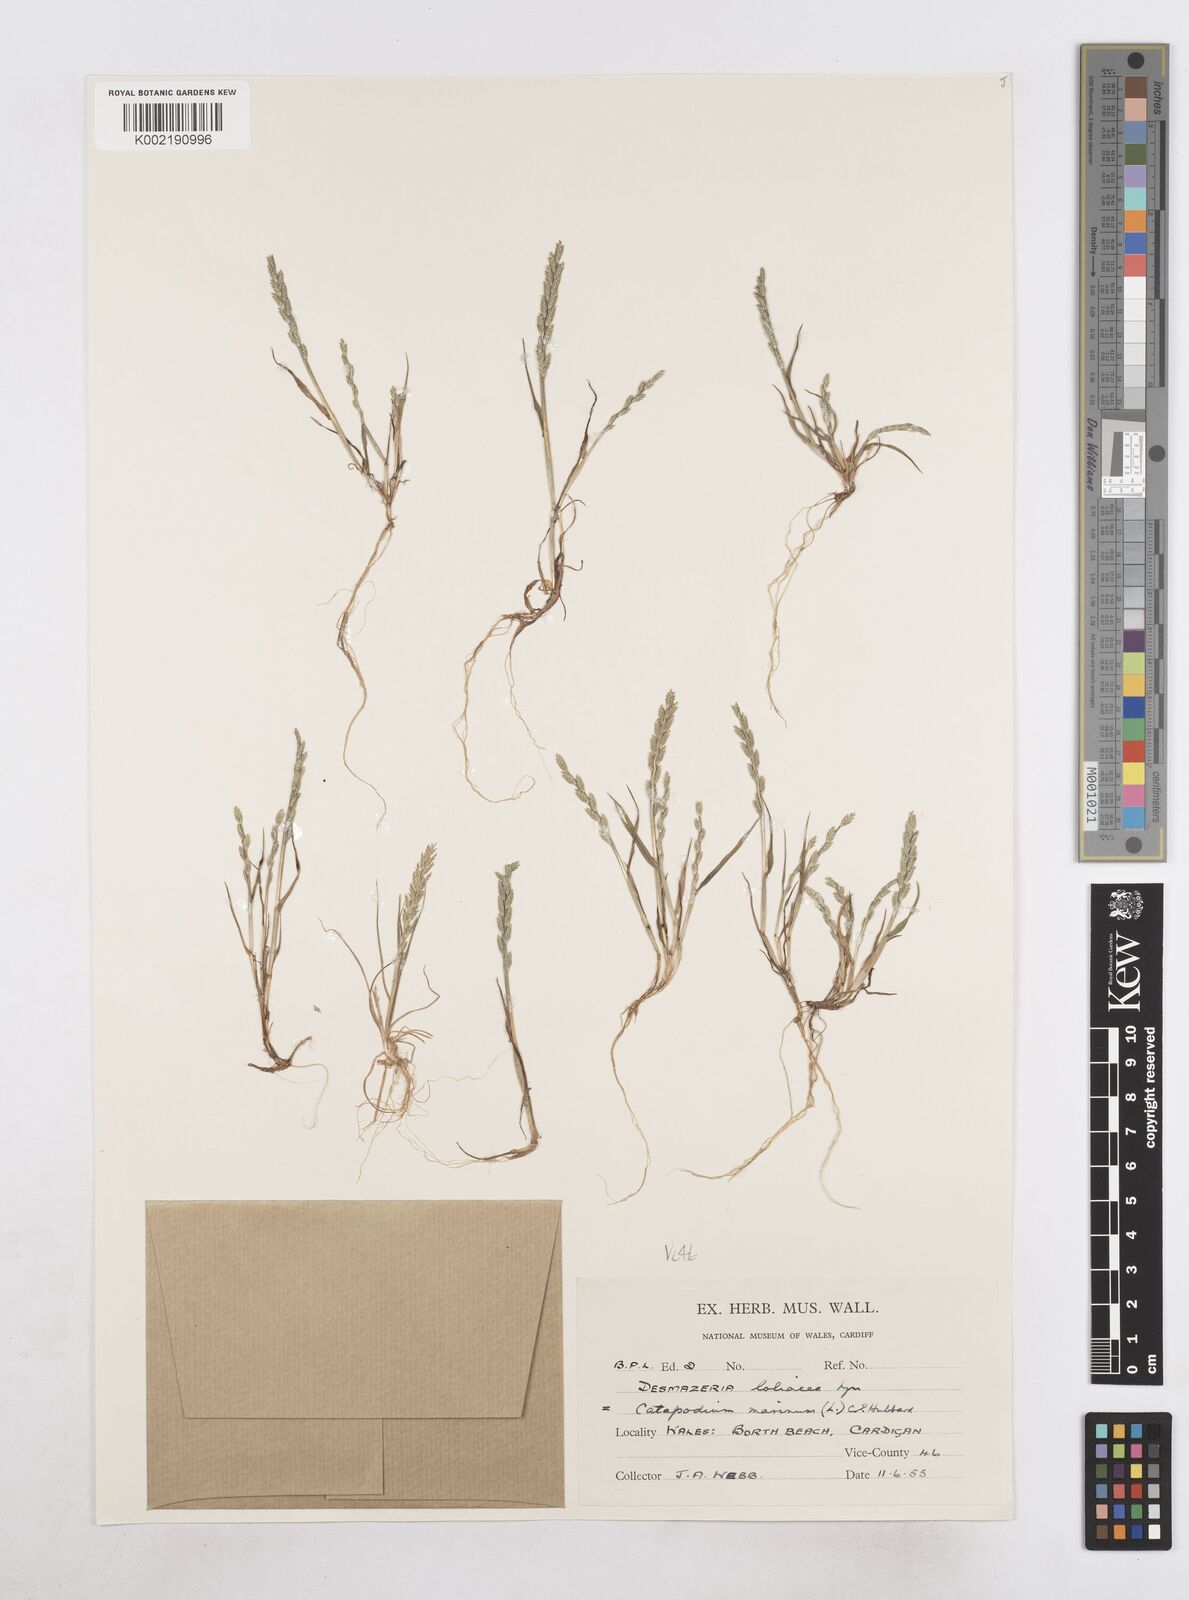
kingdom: Plantae
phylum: Tracheophyta
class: Liliopsida
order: Poales
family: Poaceae
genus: Catapodium
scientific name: Catapodium marinum
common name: Sea fern-grass
